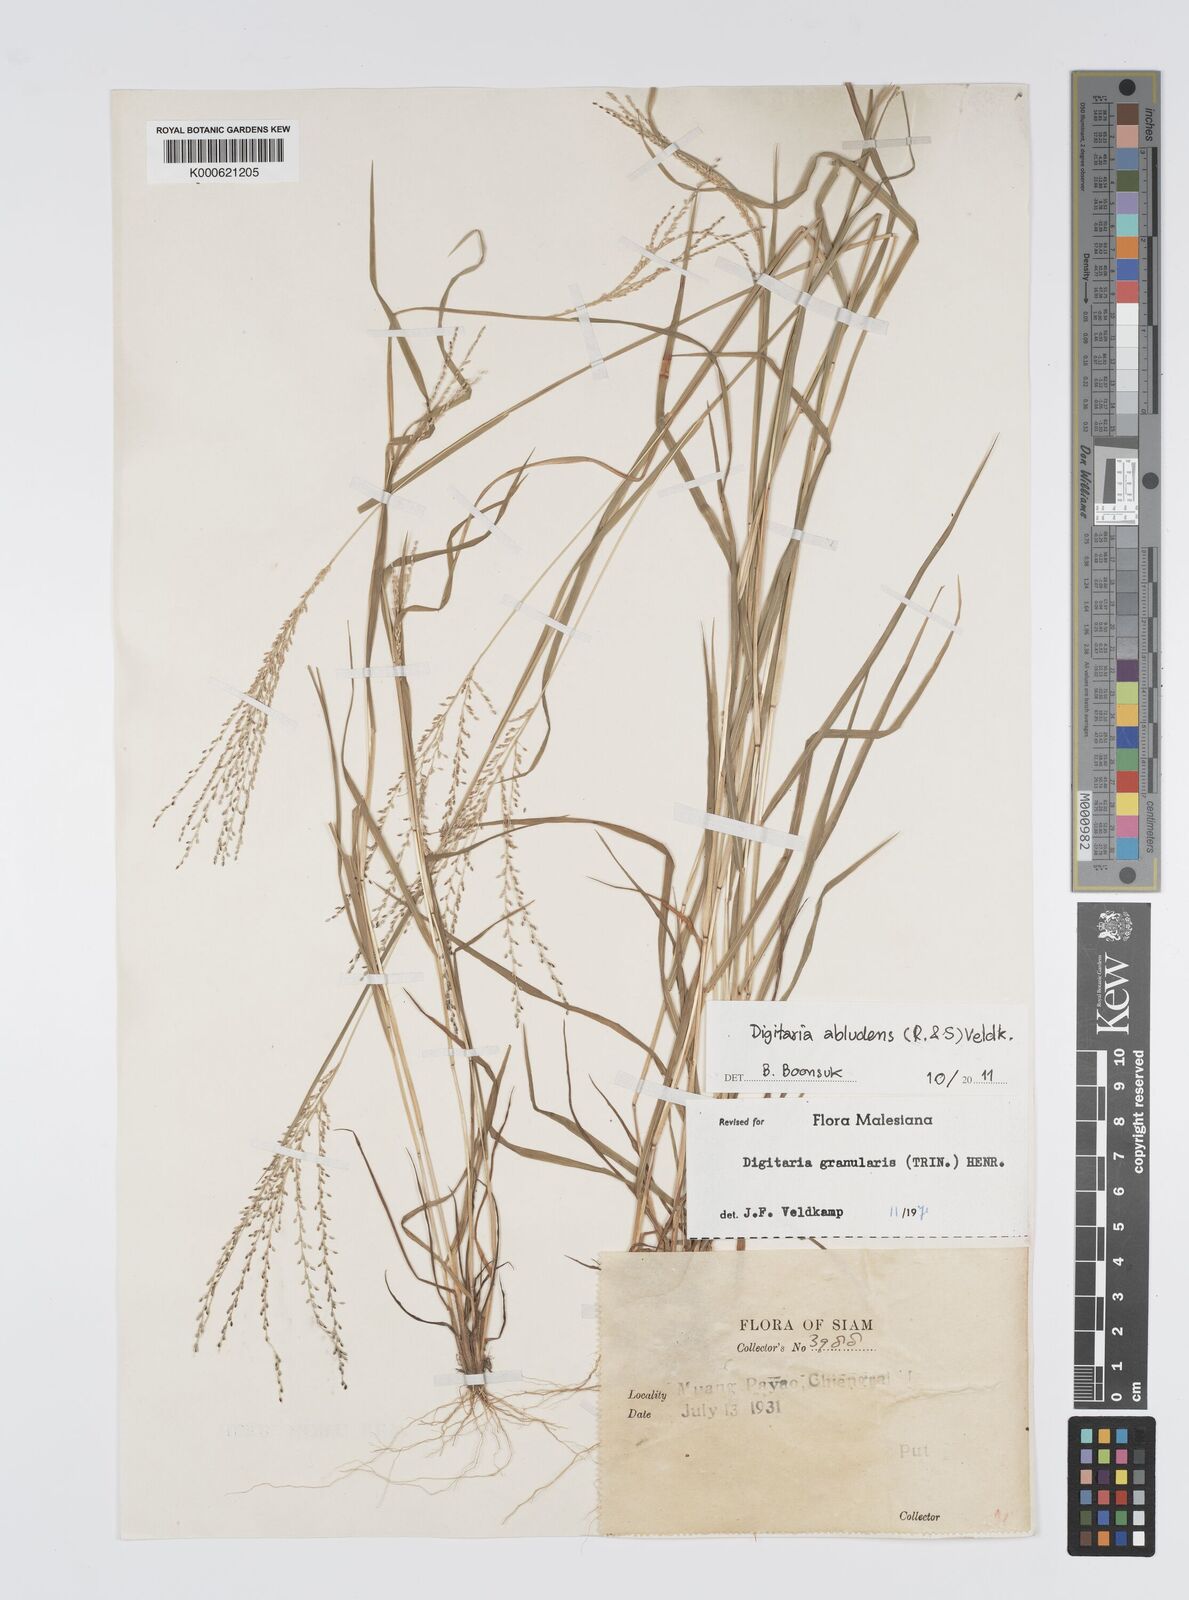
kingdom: Plantae
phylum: Tracheophyta
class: Liliopsida
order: Poales
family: Poaceae
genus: Digitaria
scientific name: Digitaria abludens
